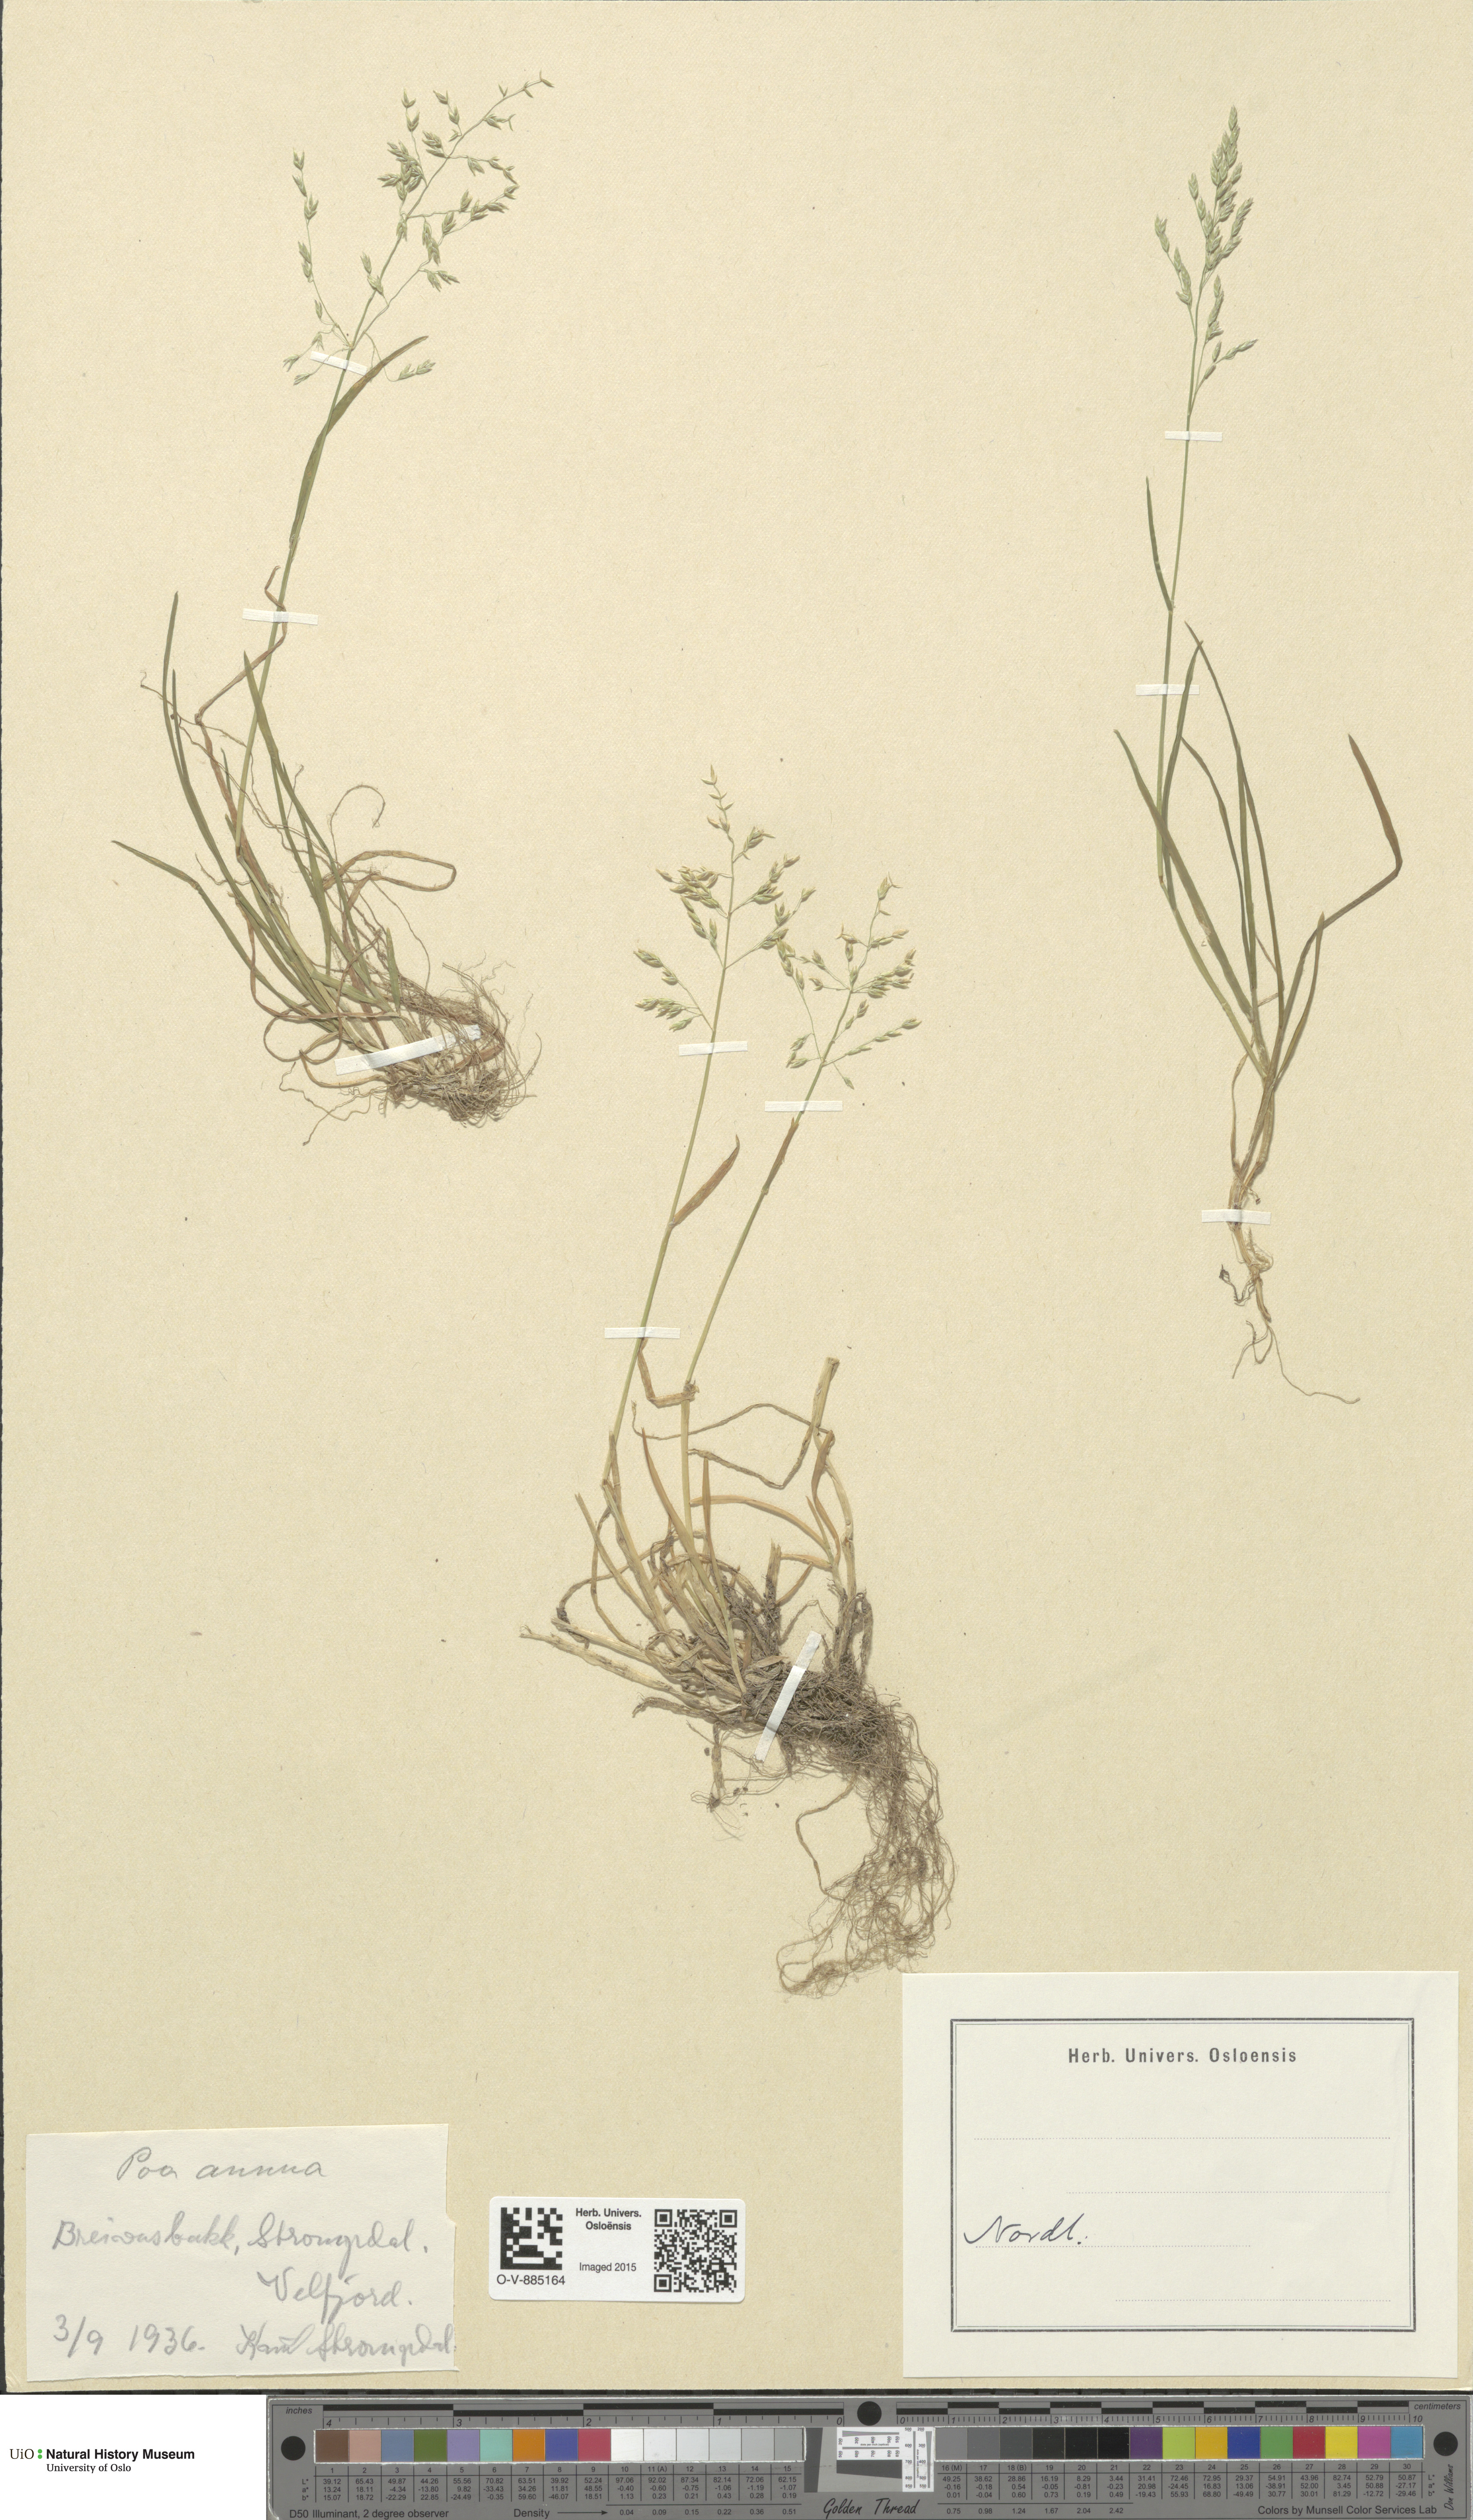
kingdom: Plantae
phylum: Tracheophyta
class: Liliopsida
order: Poales
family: Poaceae
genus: Poa
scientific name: Poa annua
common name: Annual bluegrass
